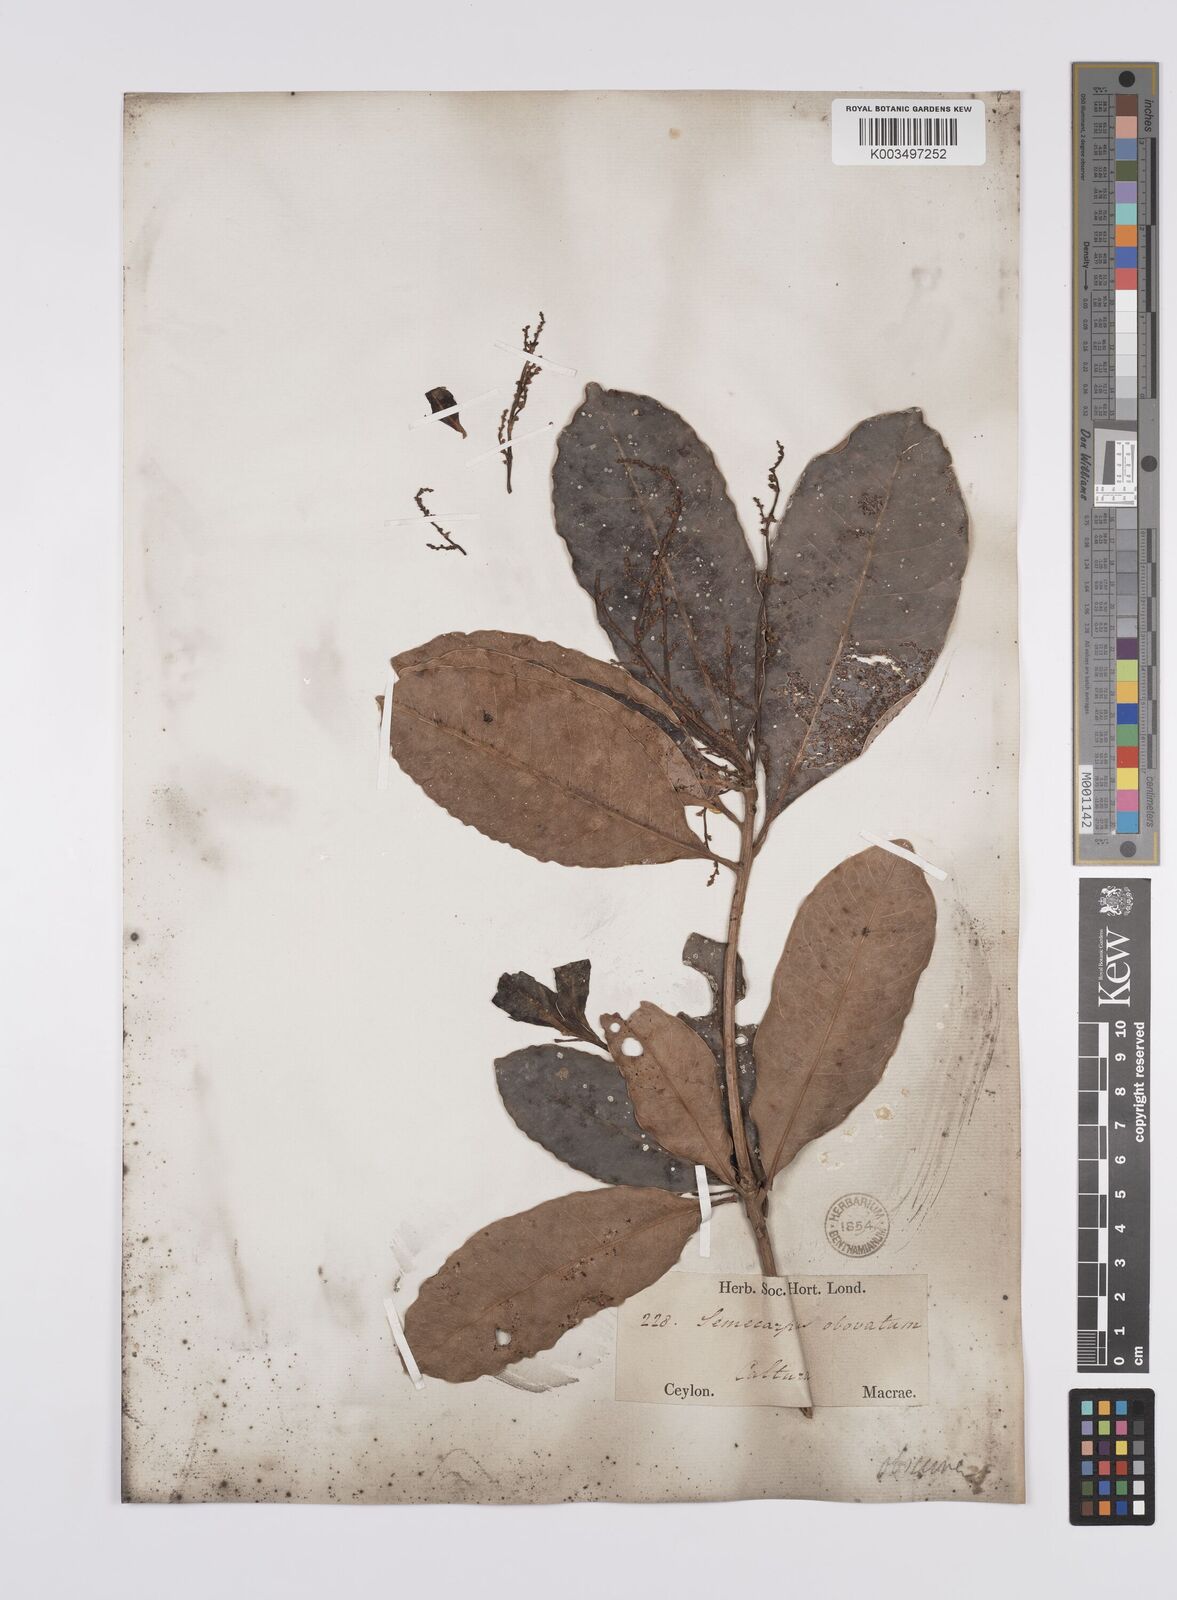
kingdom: Plantae
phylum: Tracheophyta
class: Magnoliopsida
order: Sapindales
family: Anacardiaceae
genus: Semecarpus
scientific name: Semecarpus walkeri
